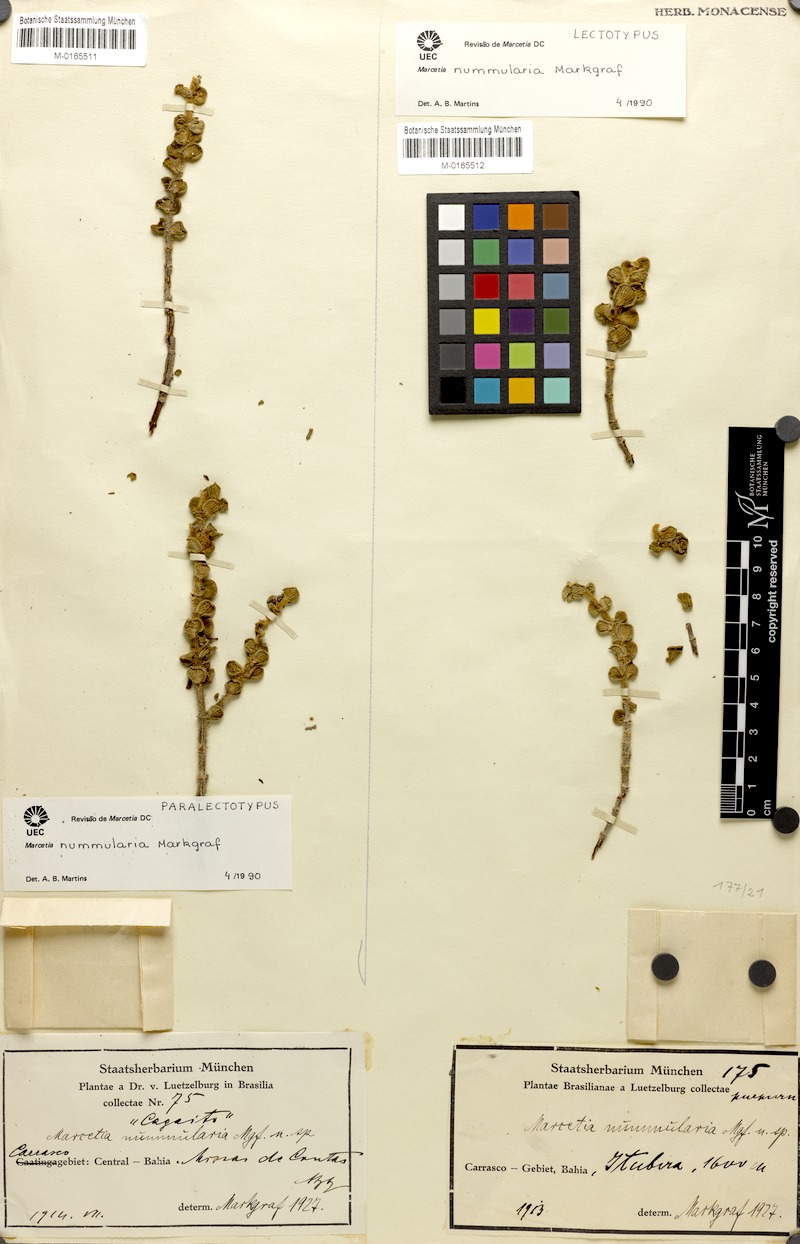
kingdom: Plantae
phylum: Tracheophyta
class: Magnoliopsida
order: Myrtales
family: Melastomataceae
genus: Marcetia
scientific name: Marcetia nummularia
